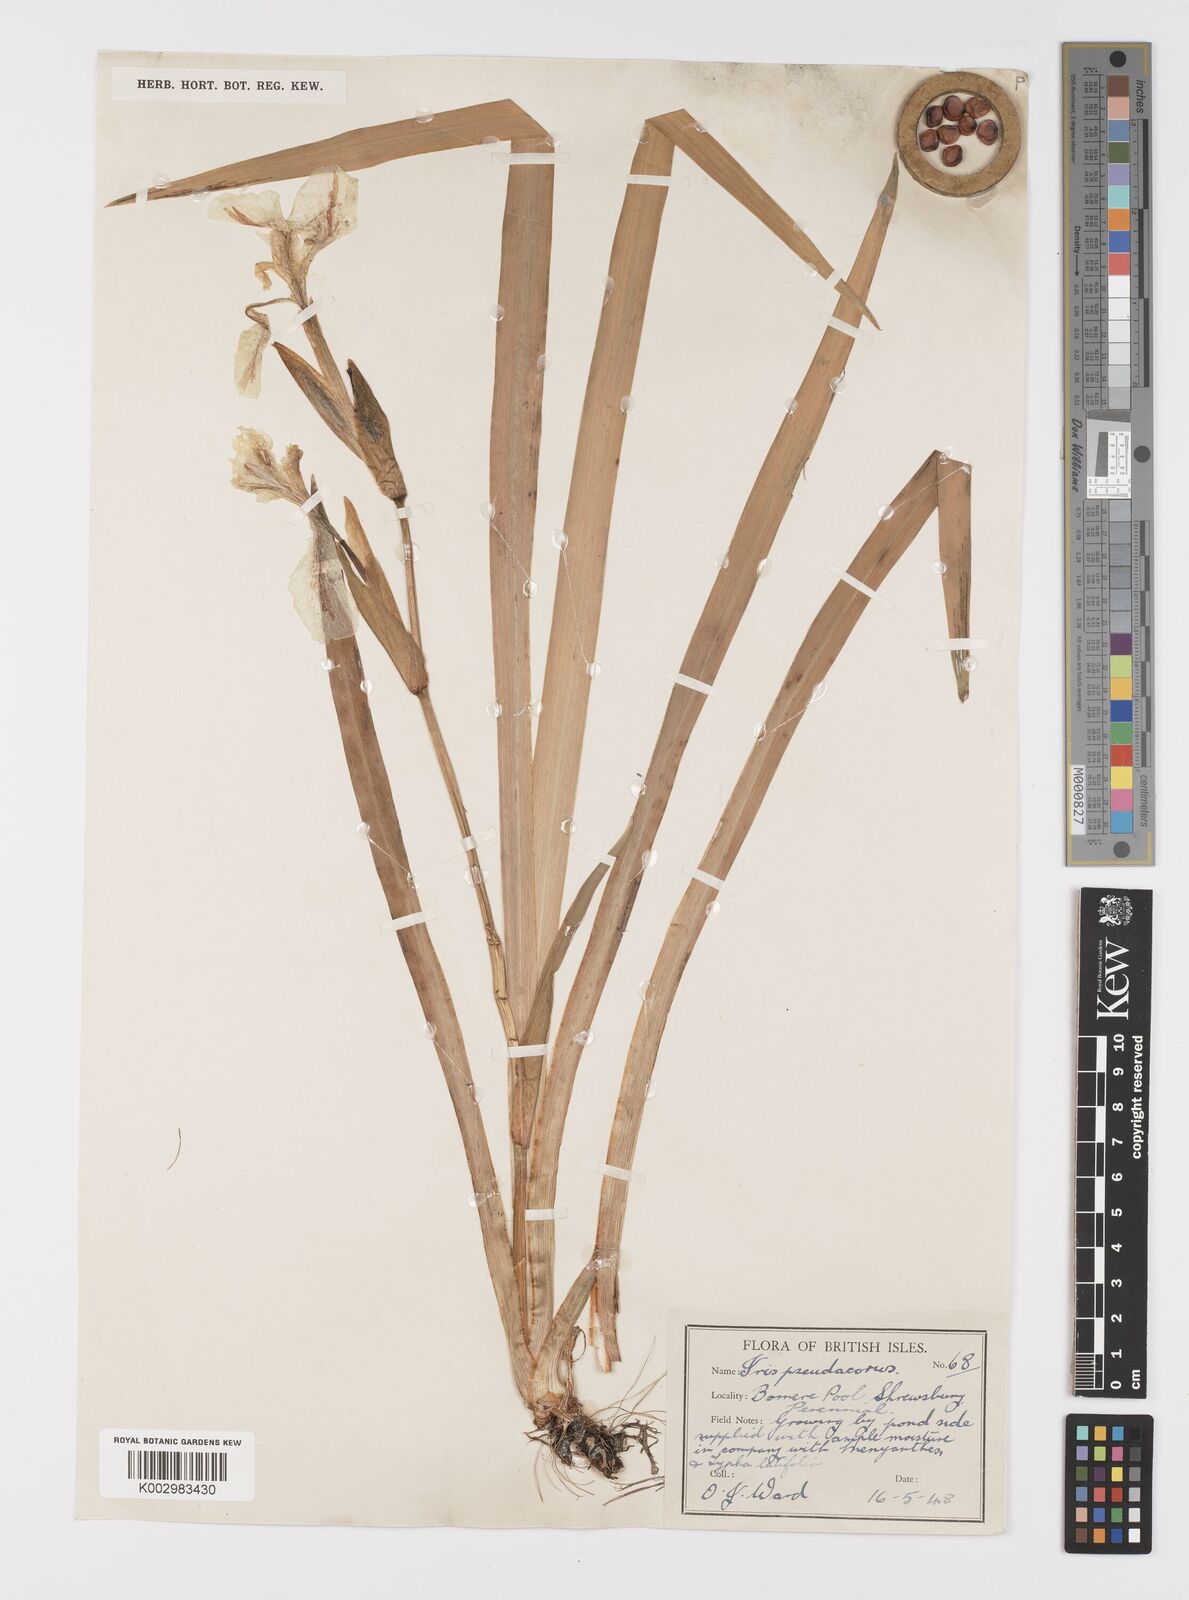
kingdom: Plantae
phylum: Tracheophyta
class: Liliopsida
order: Asparagales
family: Iridaceae
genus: Iris
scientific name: Iris pseudacorus
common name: Yellow flag
